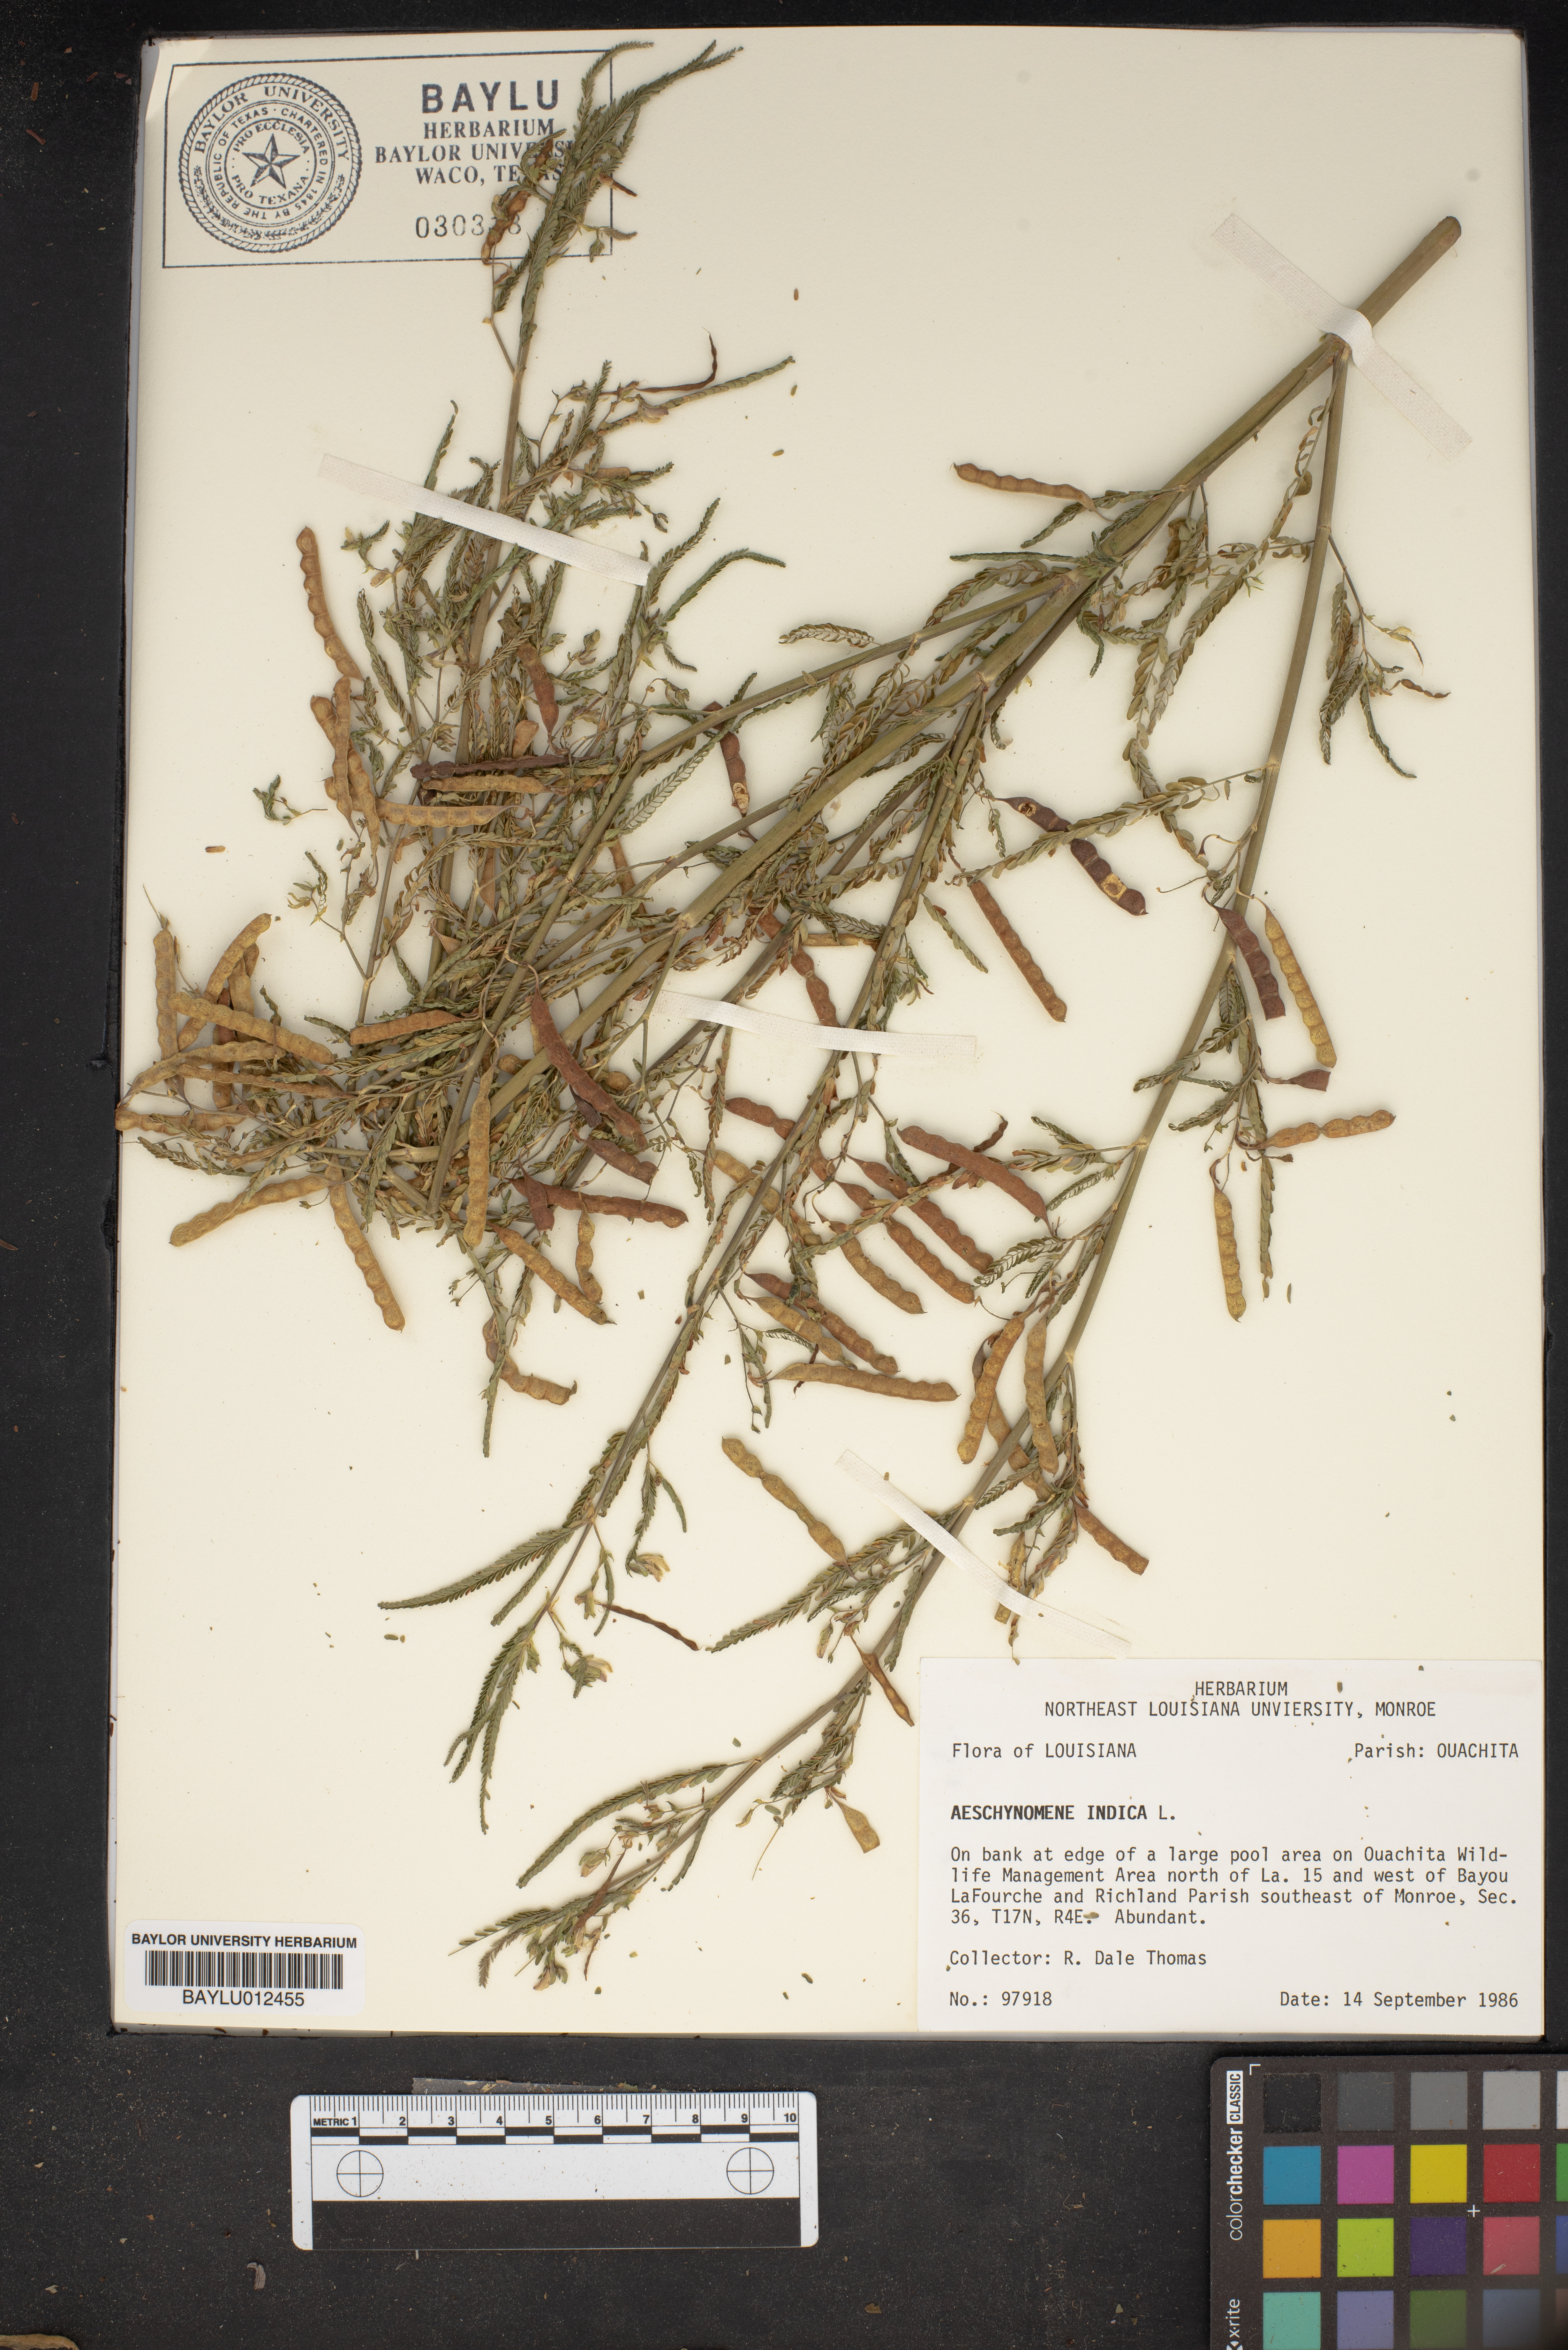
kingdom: Plantae
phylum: Tracheophyta
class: Magnoliopsida
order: Fabales
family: Fabaceae
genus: Aeschynomene
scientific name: Aeschynomene indica
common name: Indian jointvetch
